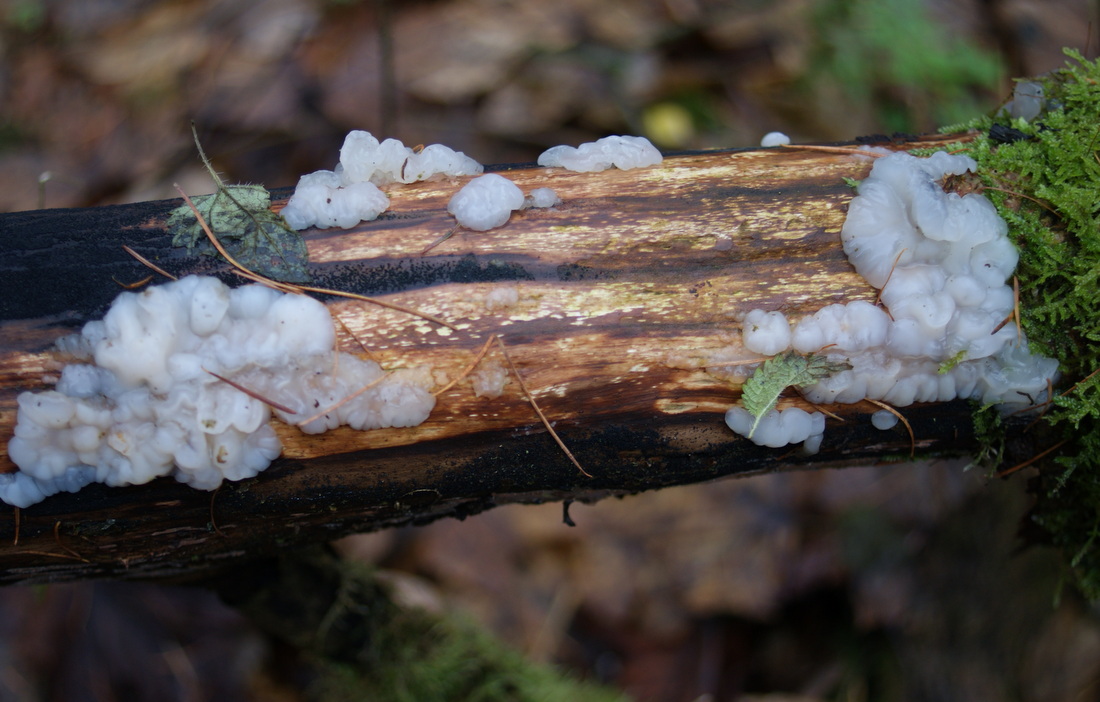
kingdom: Fungi
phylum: Basidiomycota
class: Agaricomycetes
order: Auriculariales
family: Auriculariaceae
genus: Exidia
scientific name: Exidia thuretiana
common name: hvidlig bævretop
